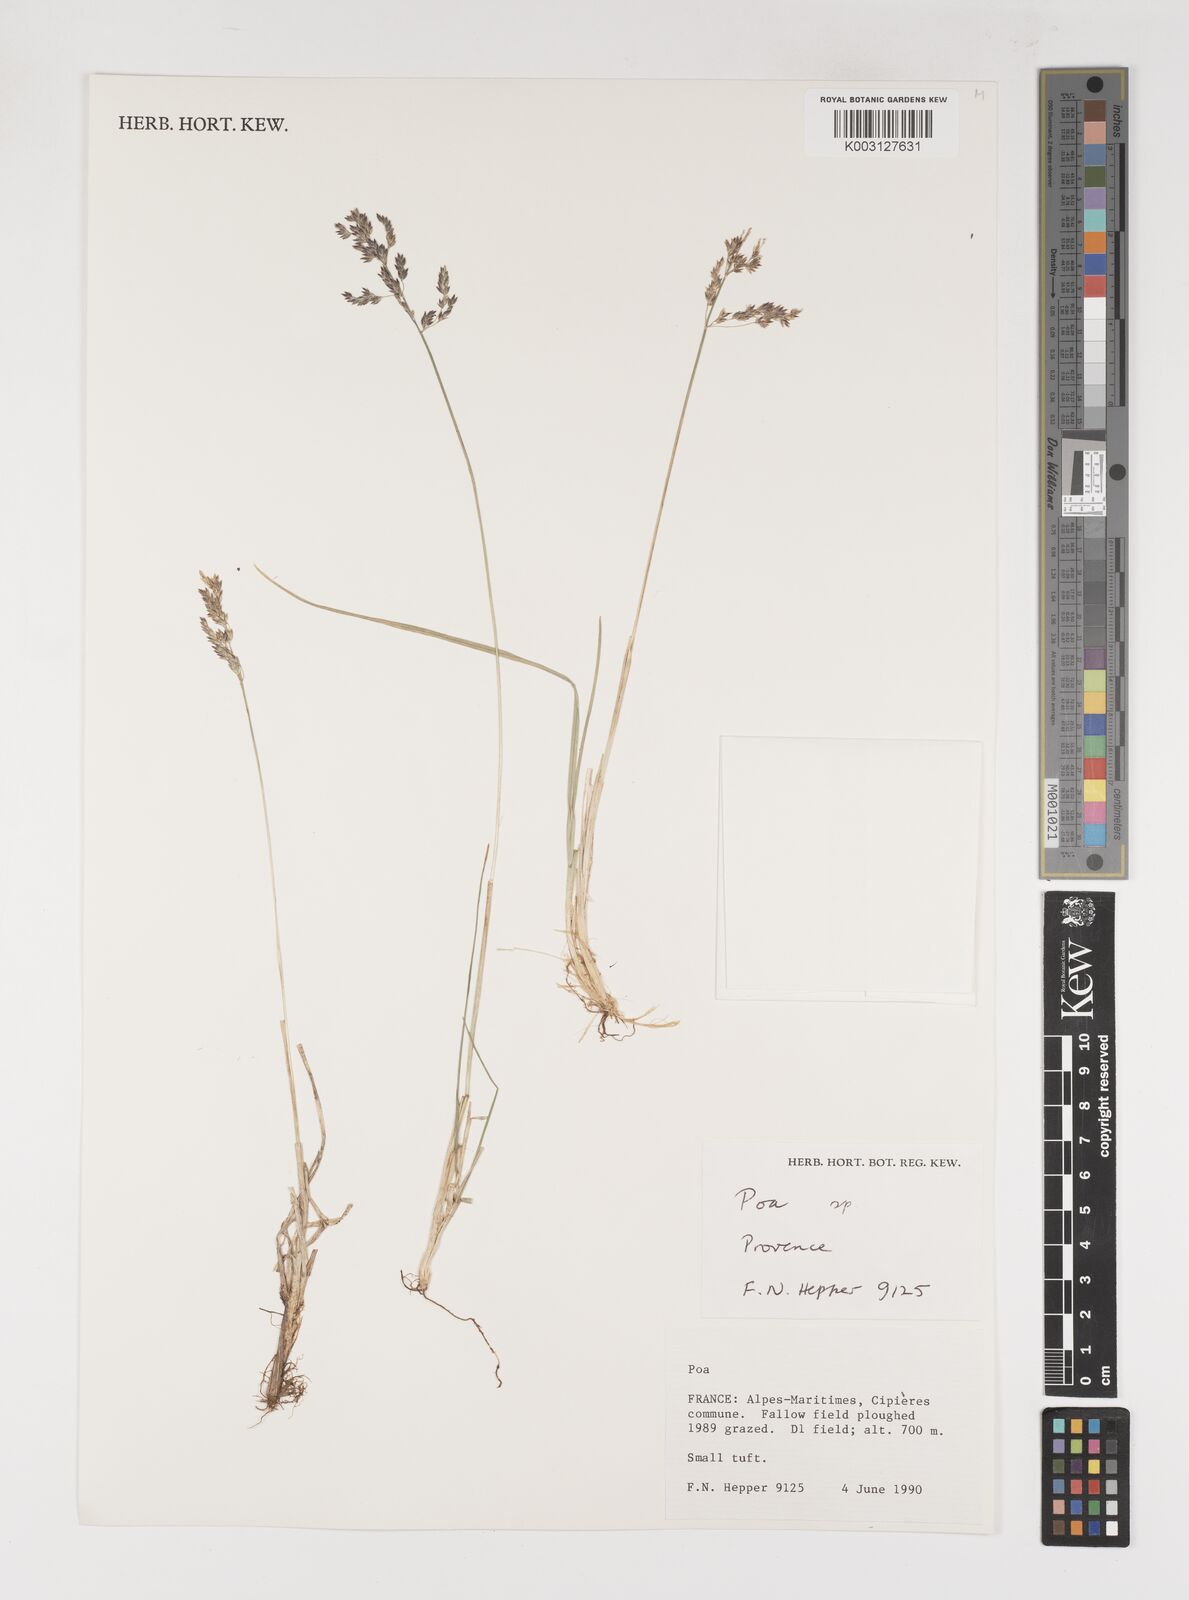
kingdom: Plantae
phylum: Tracheophyta
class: Liliopsida
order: Poales
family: Poaceae
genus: Poa
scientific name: Poa
